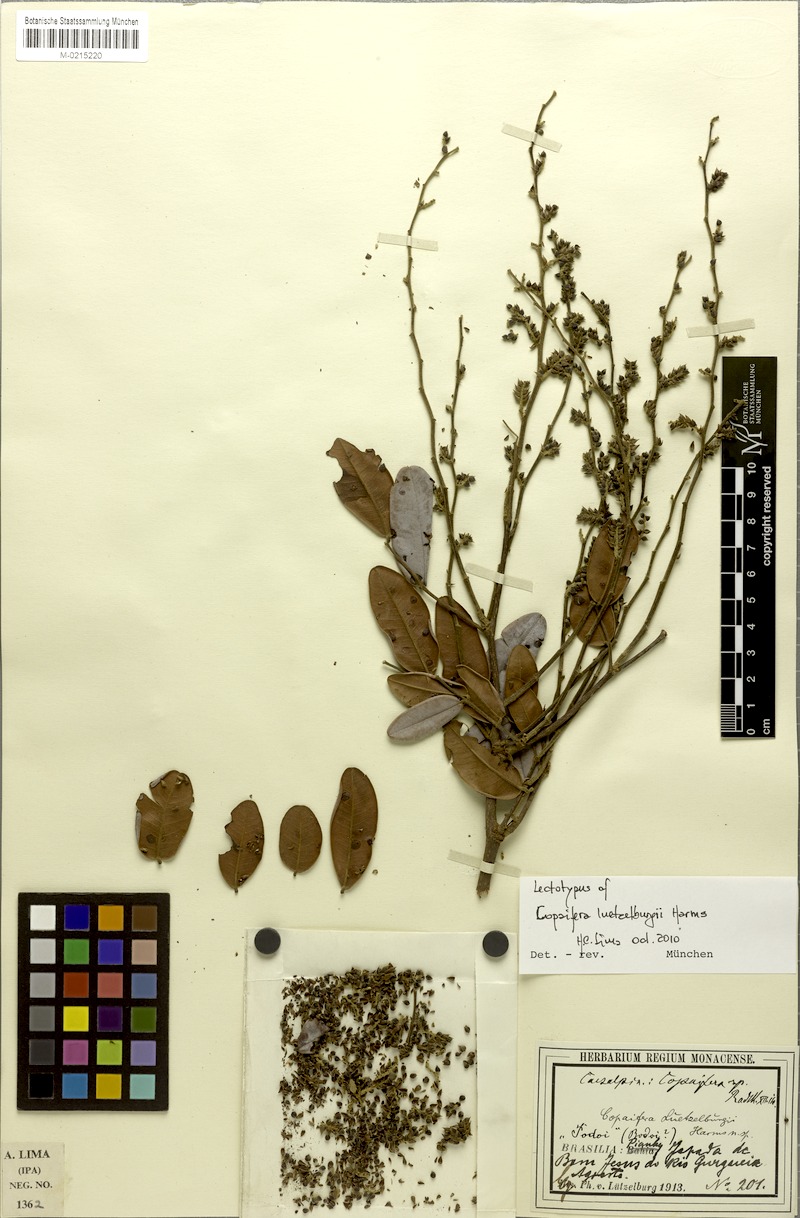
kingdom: Plantae
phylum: Tracheophyta
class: Magnoliopsida
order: Fabales
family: Fabaceae
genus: Copaifera
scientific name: Copaifera luetzelburgii
